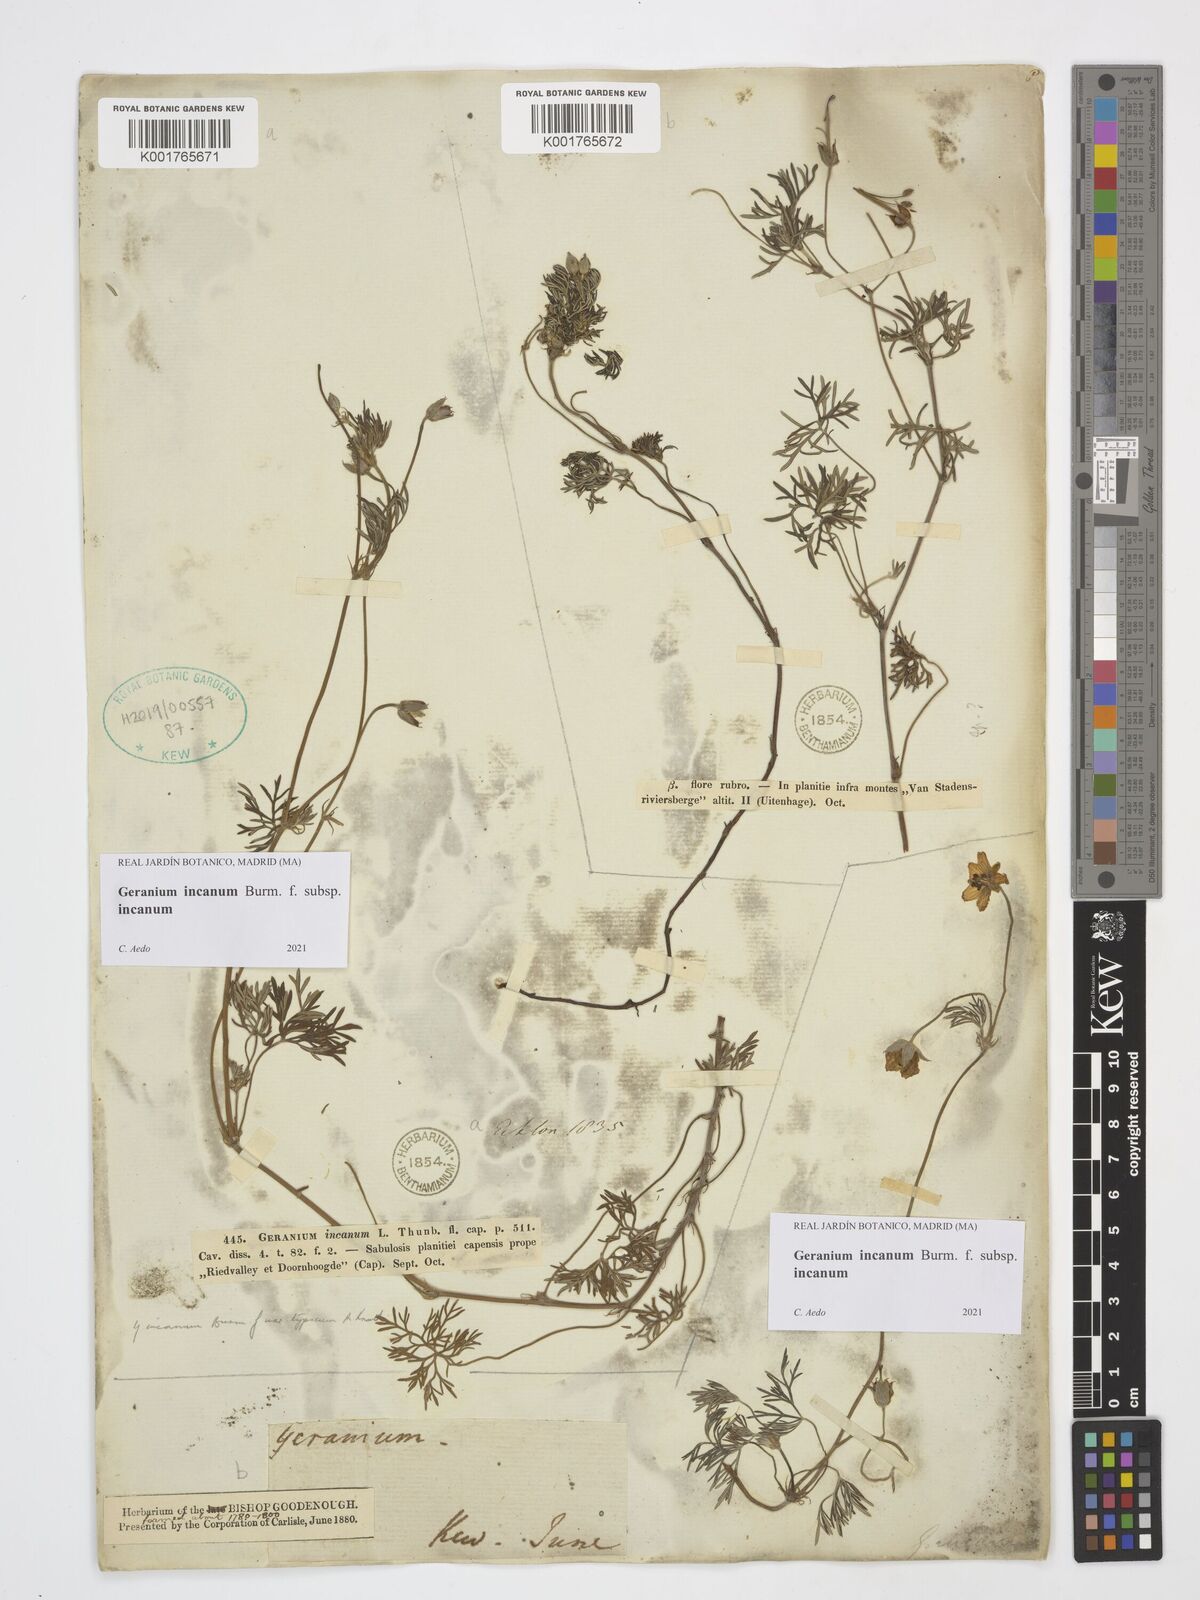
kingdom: Plantae
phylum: Tracheophyta
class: Magnoliopsida
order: Geraniales
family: Geraniaceae
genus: Geranium
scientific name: Geranium incanum
